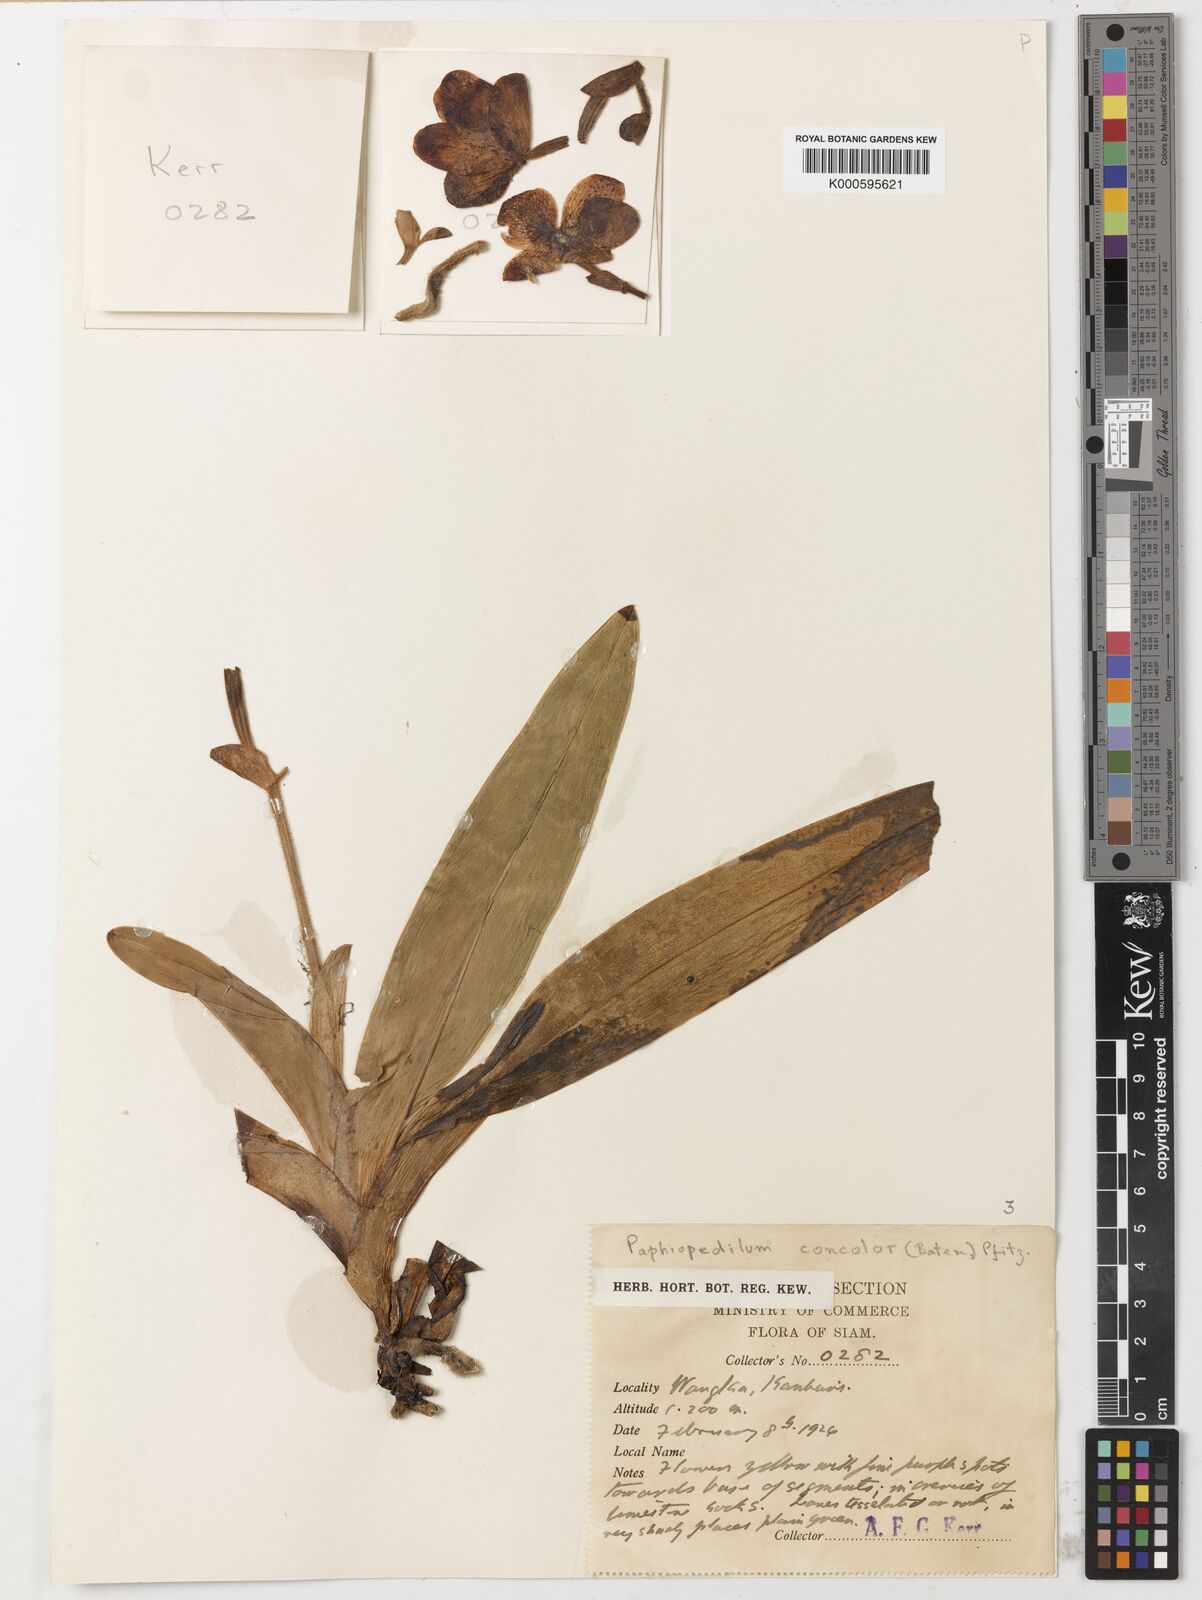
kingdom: Plantae
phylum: Tracheophyta
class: Liliopsida
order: Asparagales
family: Orchidaceae
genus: Paphiopedilum
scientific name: Paphiopedilum concolor
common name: One colored paphiopedilum
